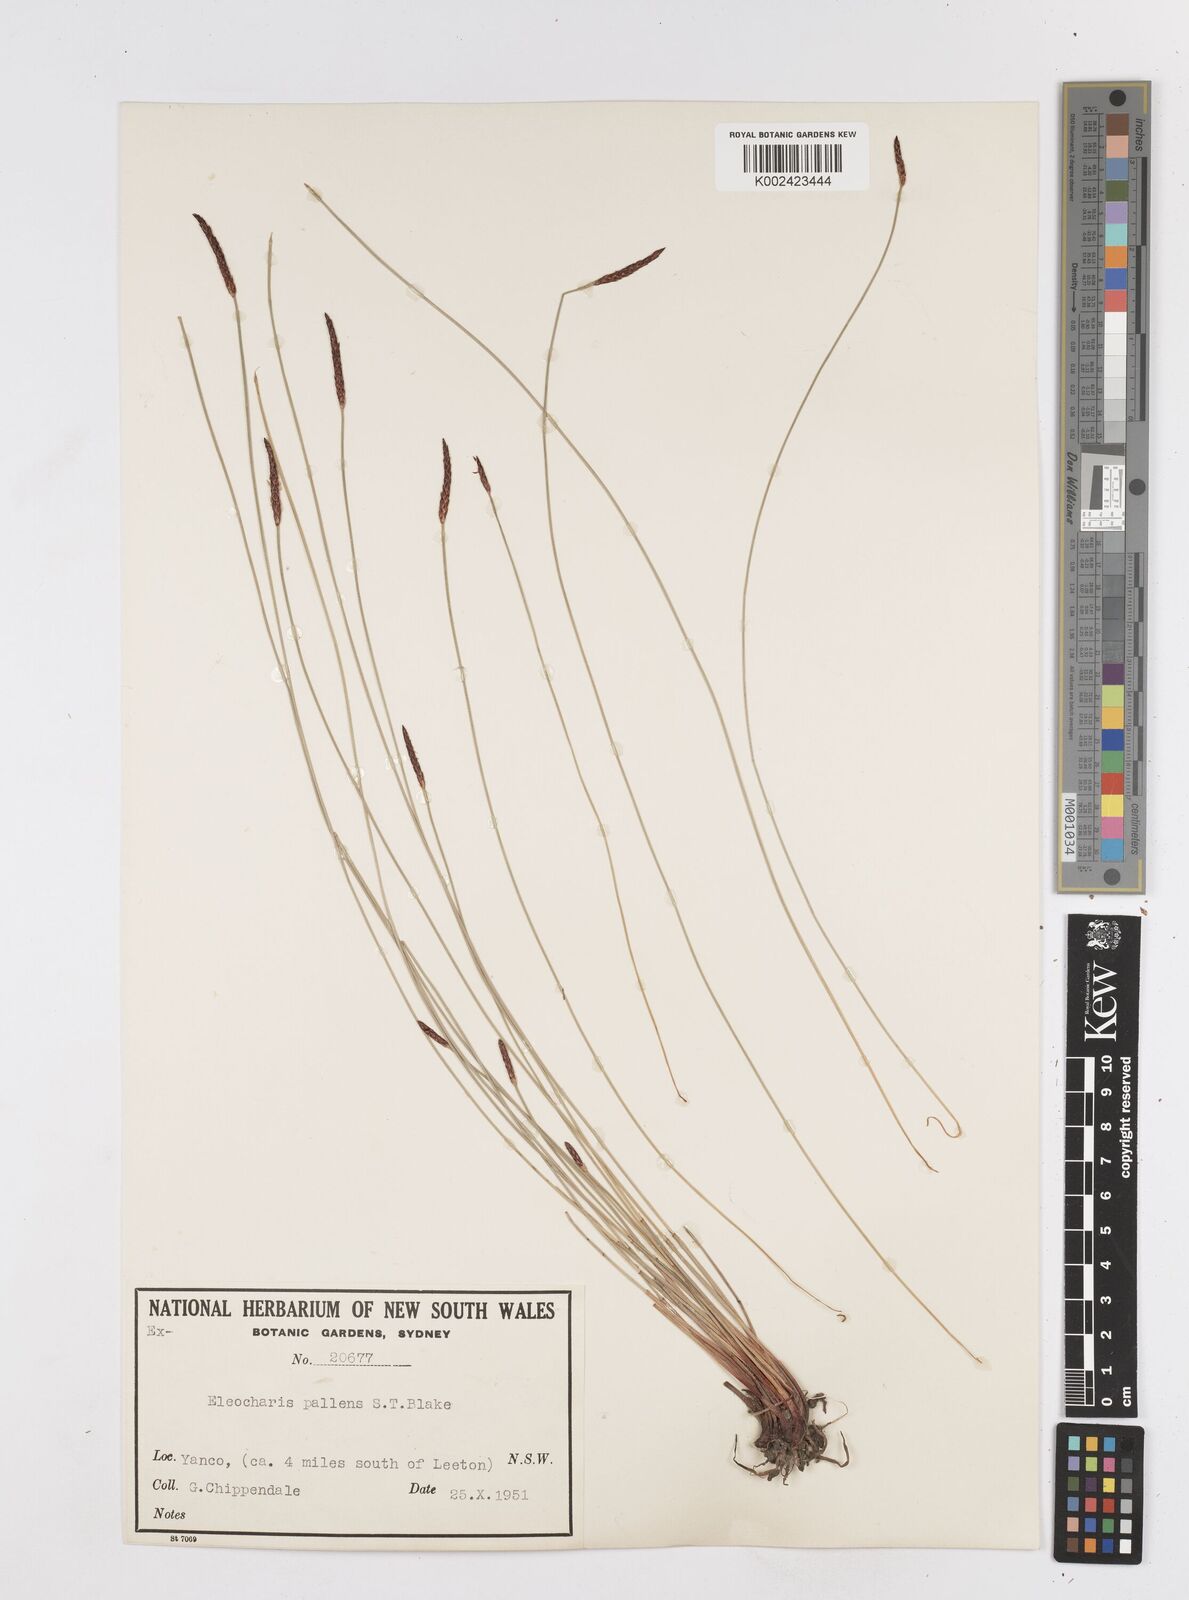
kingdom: Plantae
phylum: Tracheophyta
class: Liliopsida
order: Poales
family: Cyperaceae
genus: Eleocharis
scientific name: Eleocharis acuta
